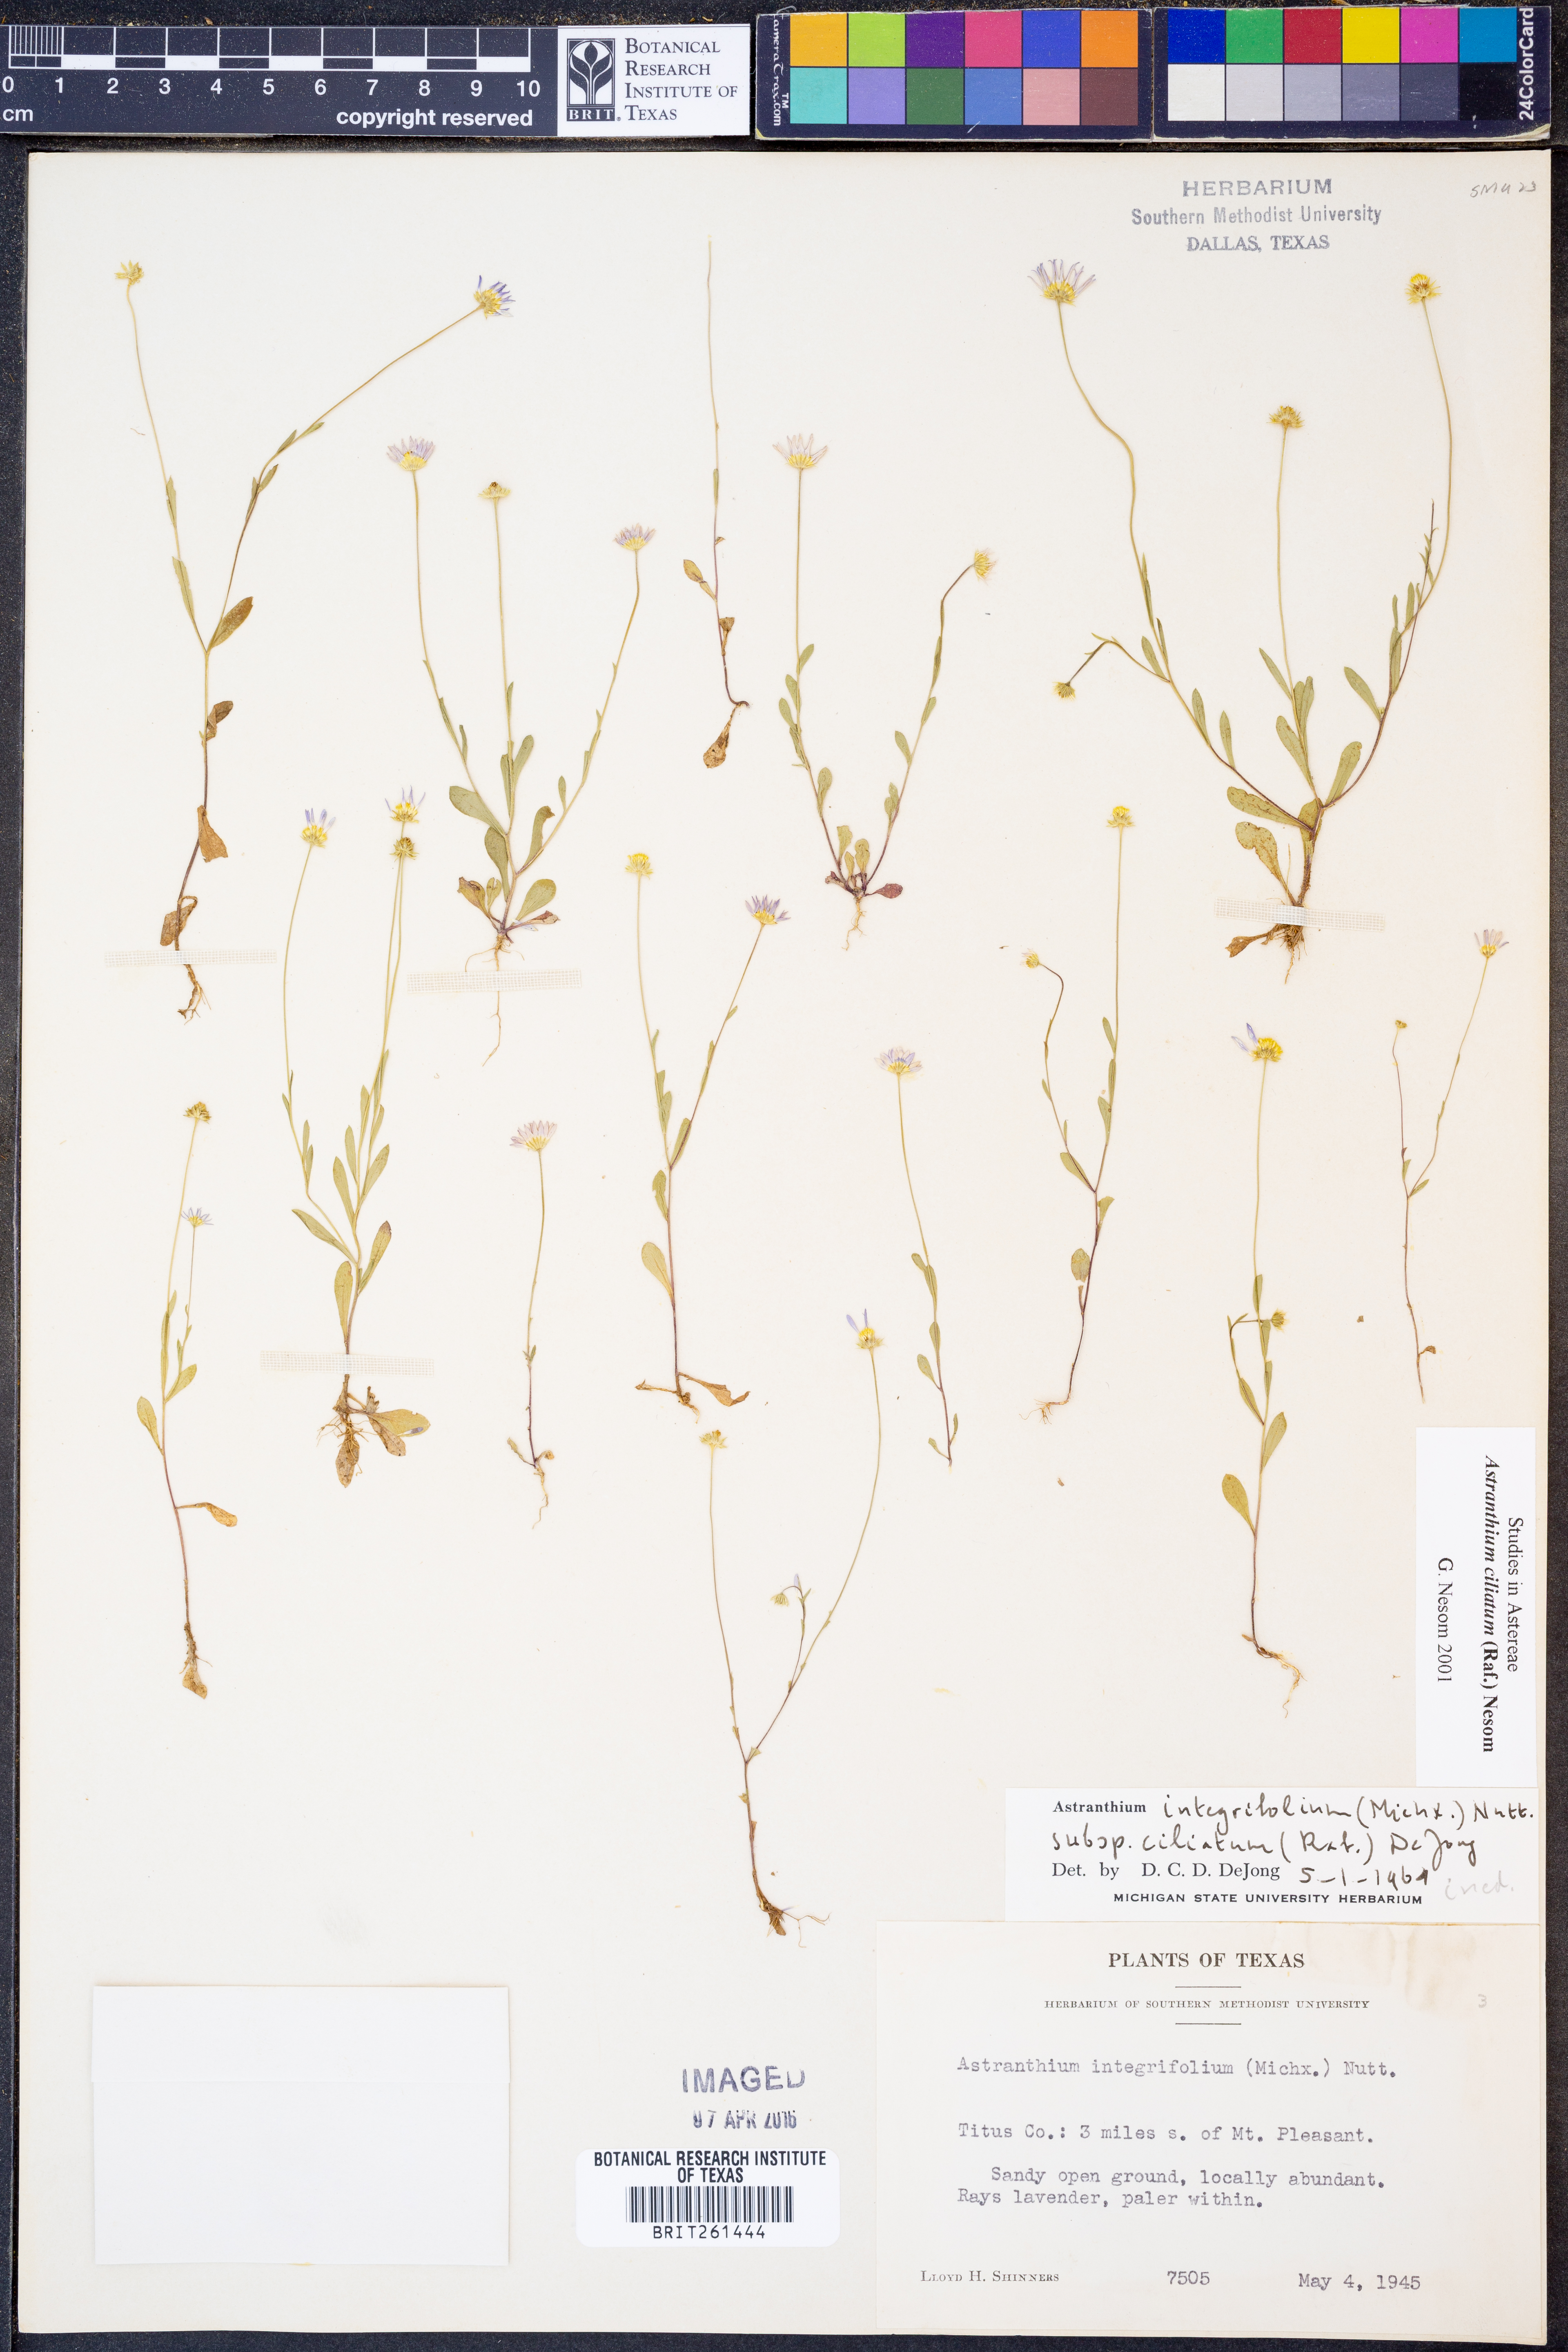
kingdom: Plantae
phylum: Tracheophyta
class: Magnoliopsida
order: Asterales
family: Asteraceae
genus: Astranthium
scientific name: Astranthium ciliatum
